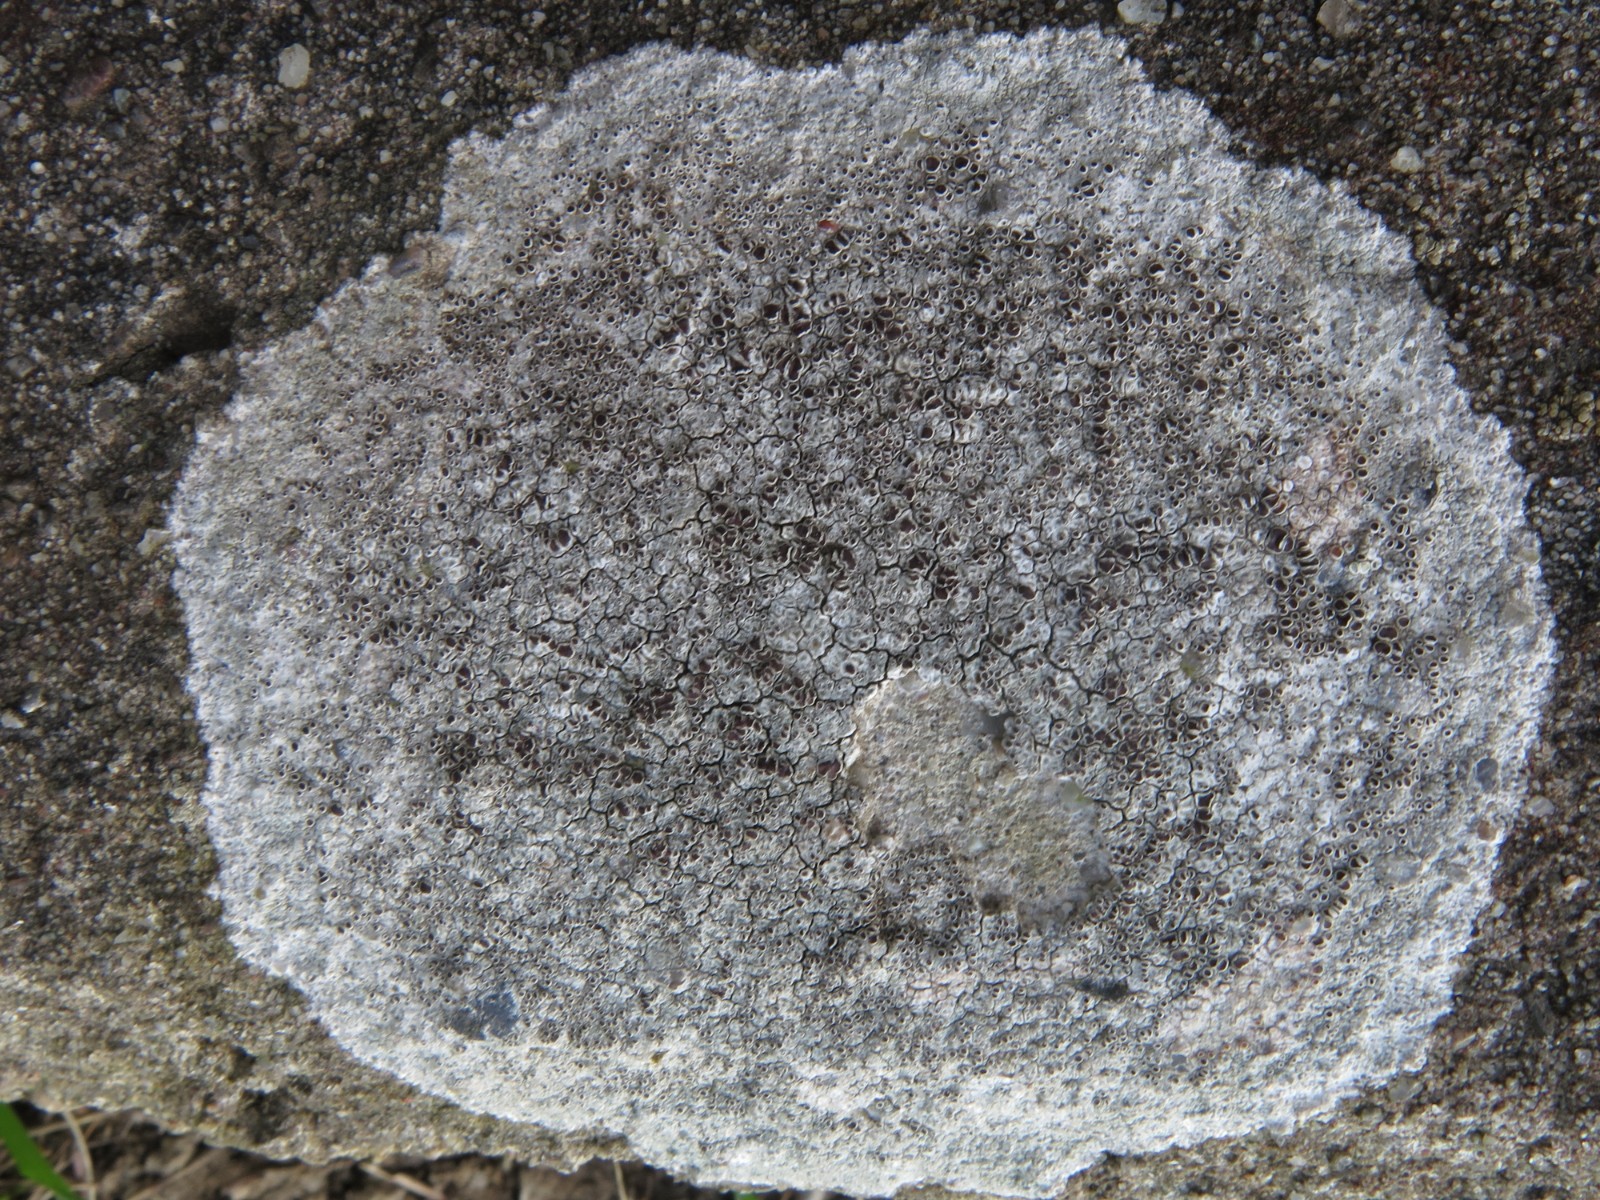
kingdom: Fungi
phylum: Ascomycota
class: Lecanoromycetes
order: Lecanorales
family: Lecanoraceae
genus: Lecanora
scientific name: Lecanora campestris
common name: mur-kantskivelav
